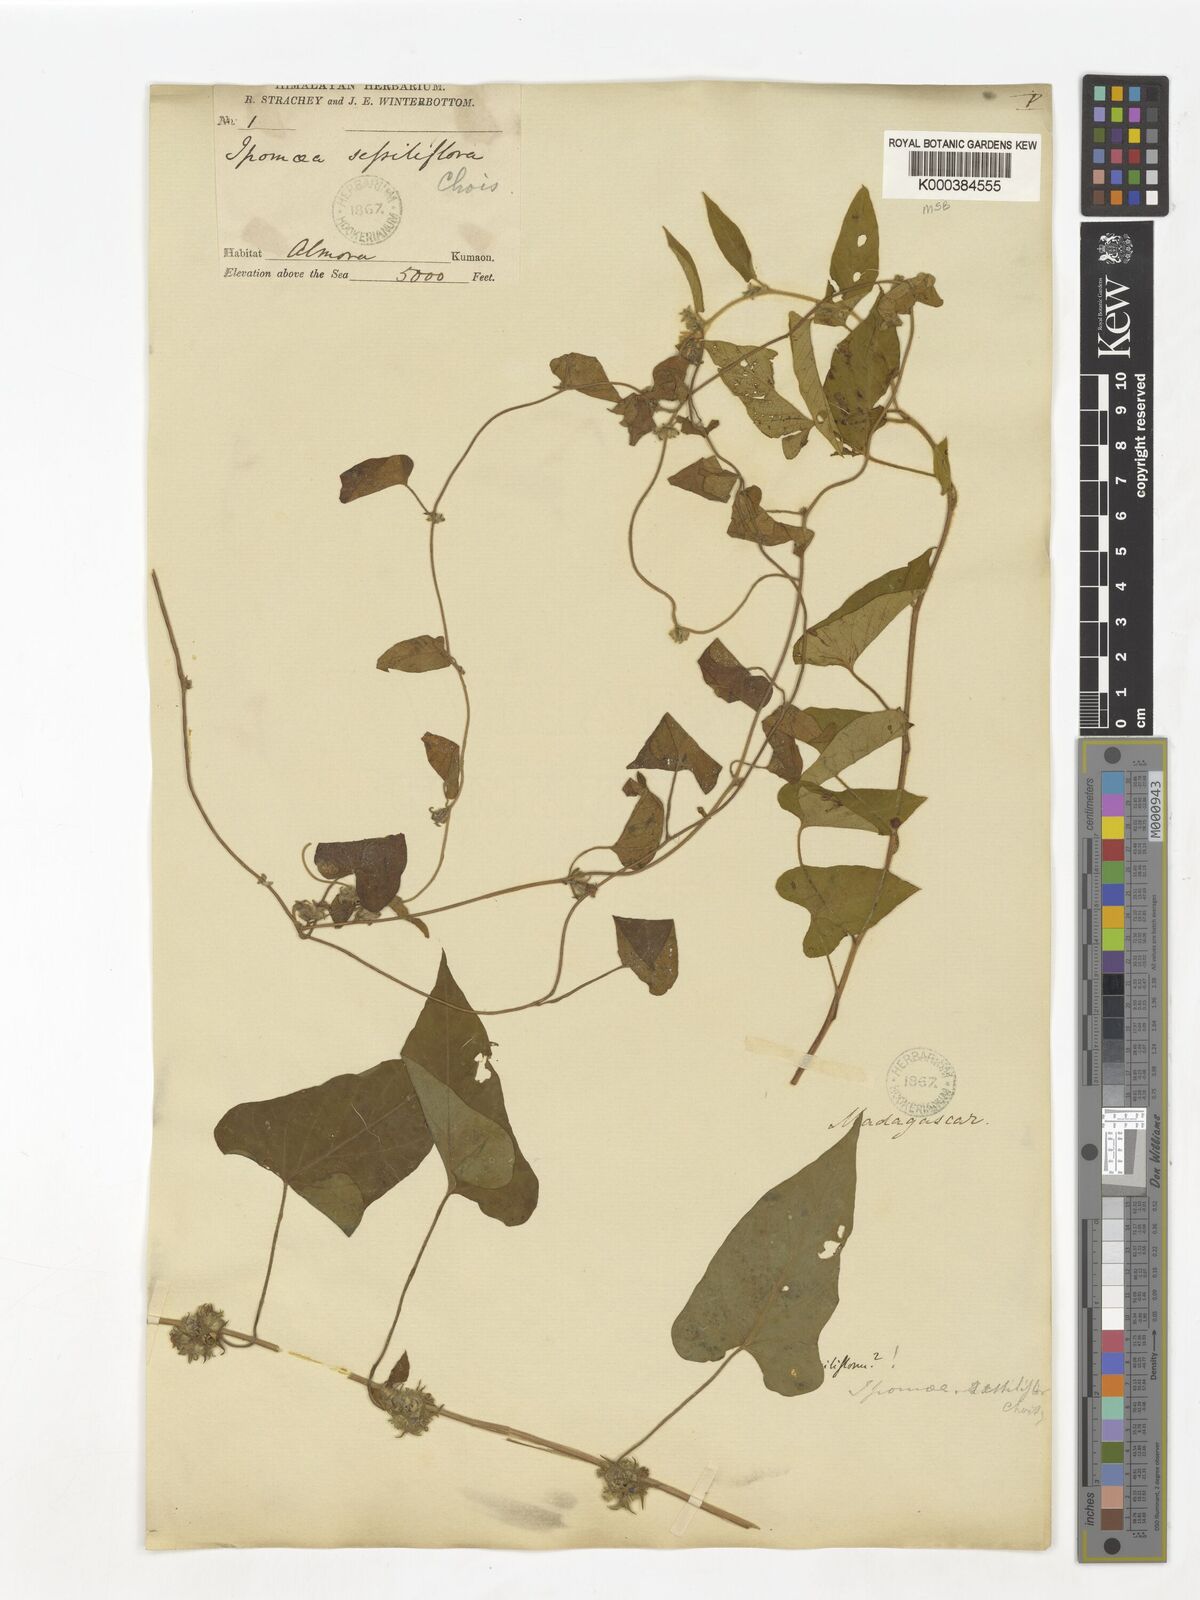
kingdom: Plantae
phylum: Tracheophyta
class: Magnoliopsida
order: Solanales
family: Convolvulaceae
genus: Ipomoea
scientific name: Ipomoea eriocarpa
